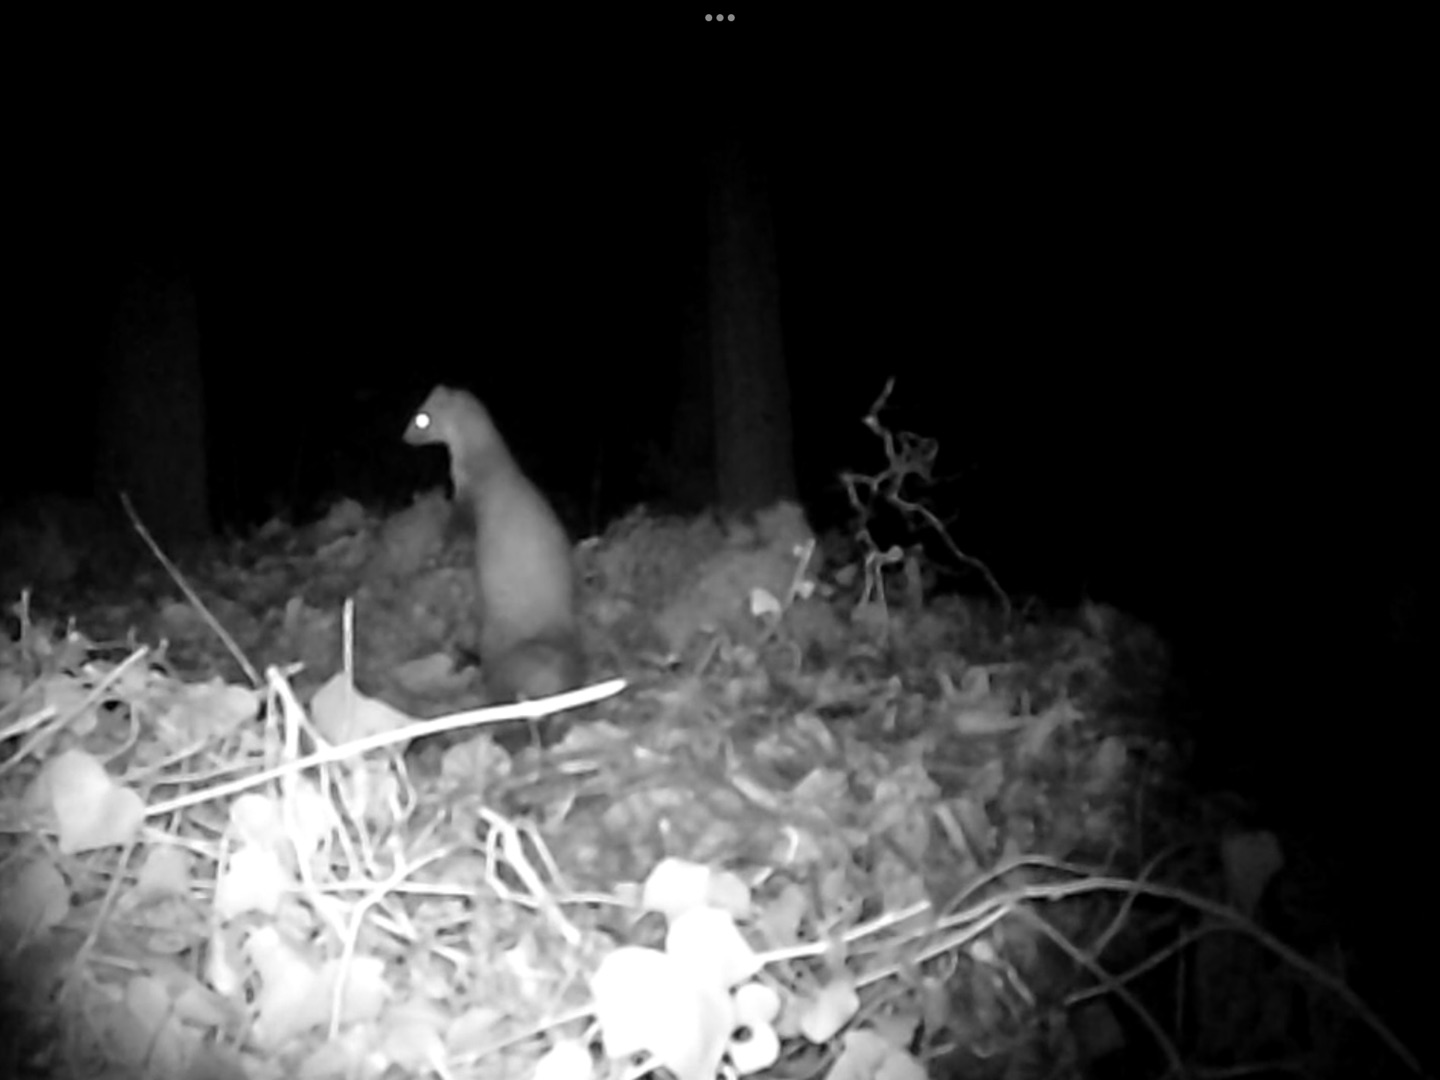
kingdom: Animalia
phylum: Chordata
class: Mammalia
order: Carnivora
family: Mustelidae
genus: Martes
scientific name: Martes foina
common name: Husmår
